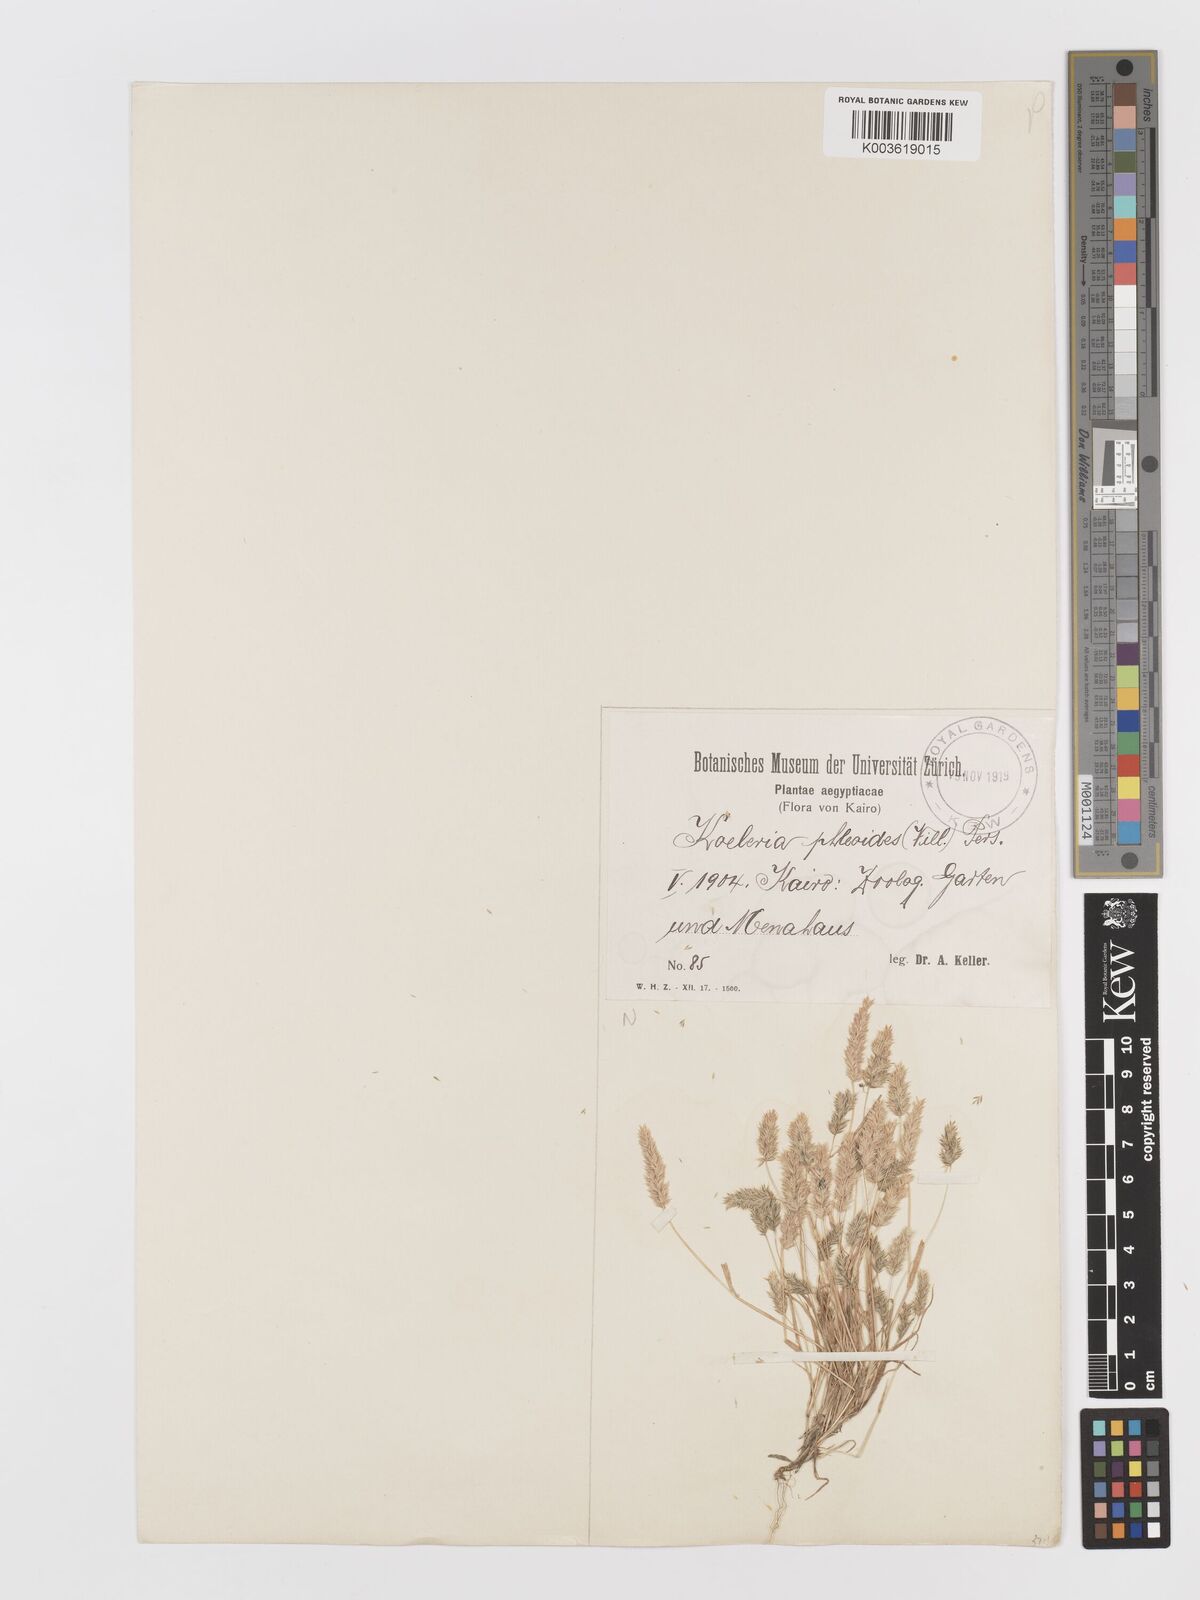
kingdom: Plantae
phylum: Tracheophyta
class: Liliopsida
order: Poales
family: Poaceae
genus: Rostraria
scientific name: Rostraria cristata
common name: Mediterranean hair-grass
